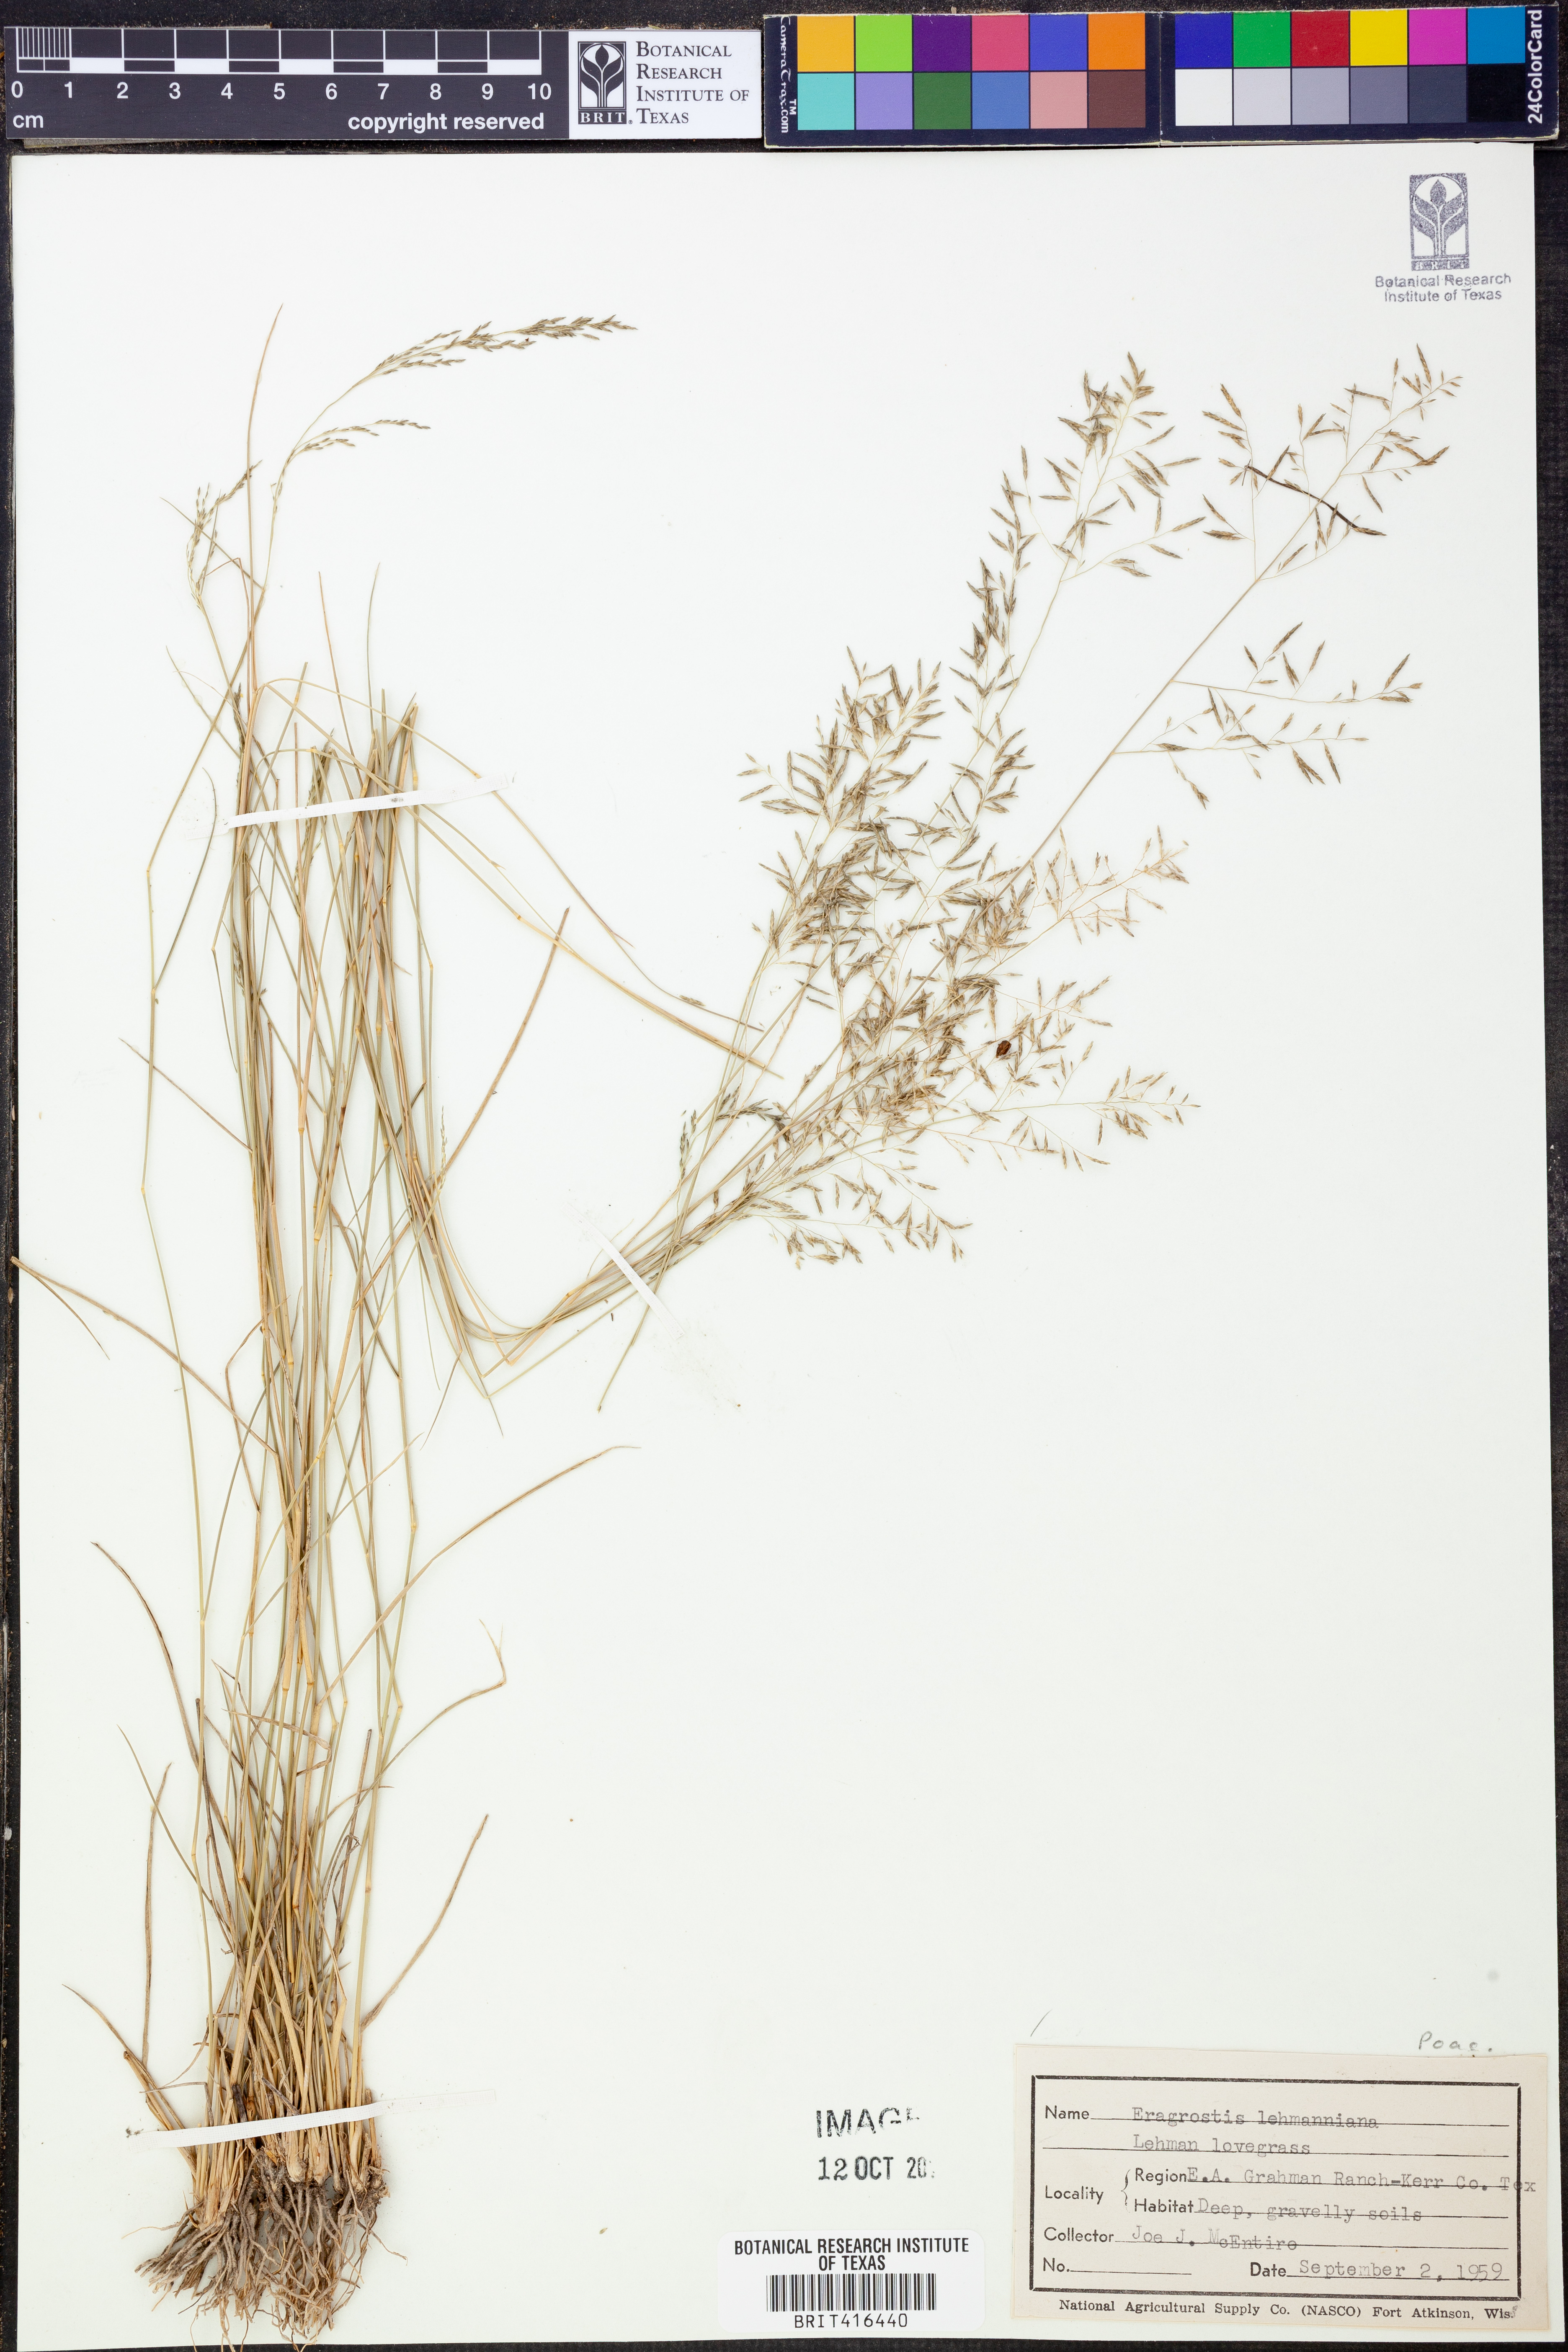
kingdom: Plantae
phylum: Tracheophyta
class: Liliopsida
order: Poales
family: Poaceae
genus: Eragrostis
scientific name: Eragrostis lehmanniana
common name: Lehmann lovegrass
